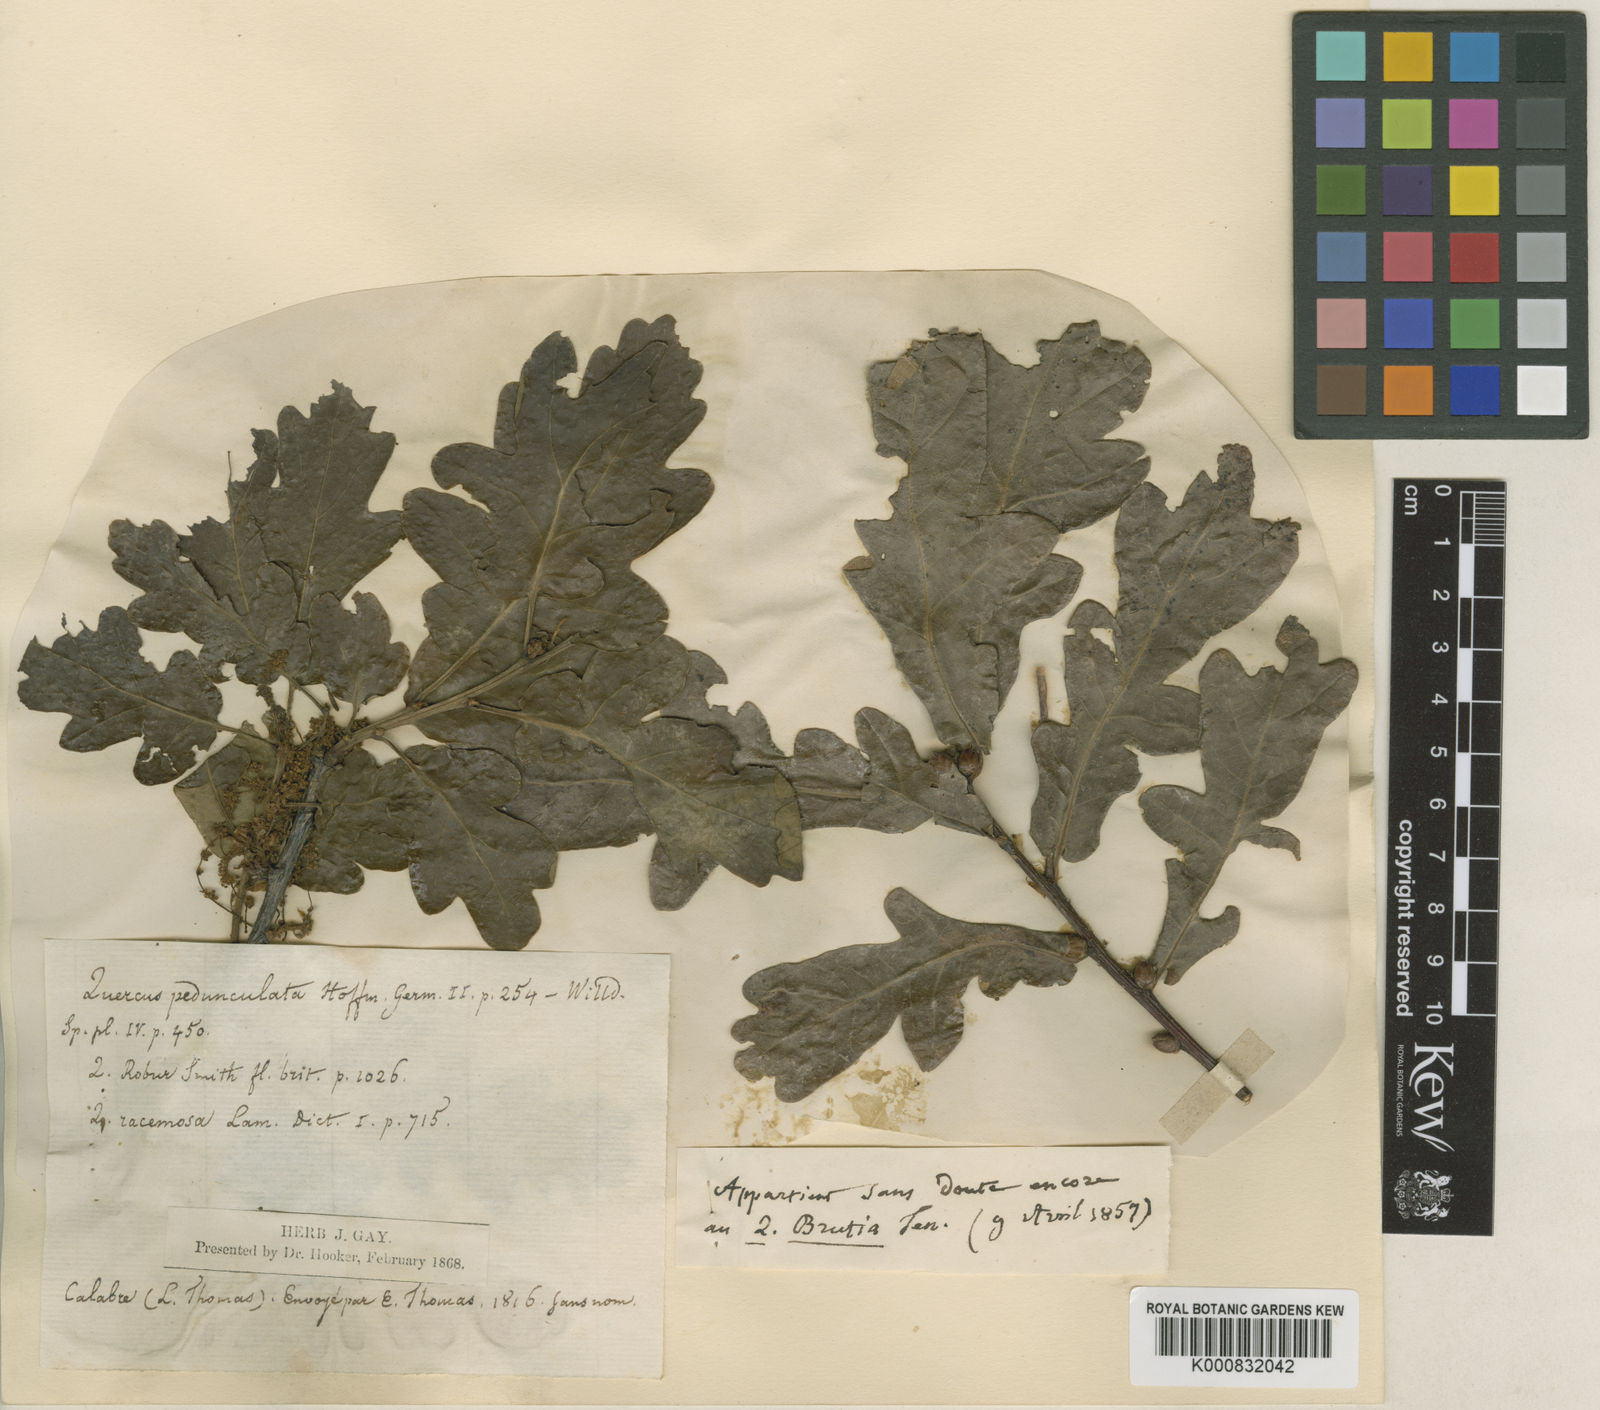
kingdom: Plantae
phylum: Tracheophyta
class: Magnoliopsida
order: Fagales
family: Fagaceae
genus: Quercus
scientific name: Quercus robur
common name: Pedunculate oak
